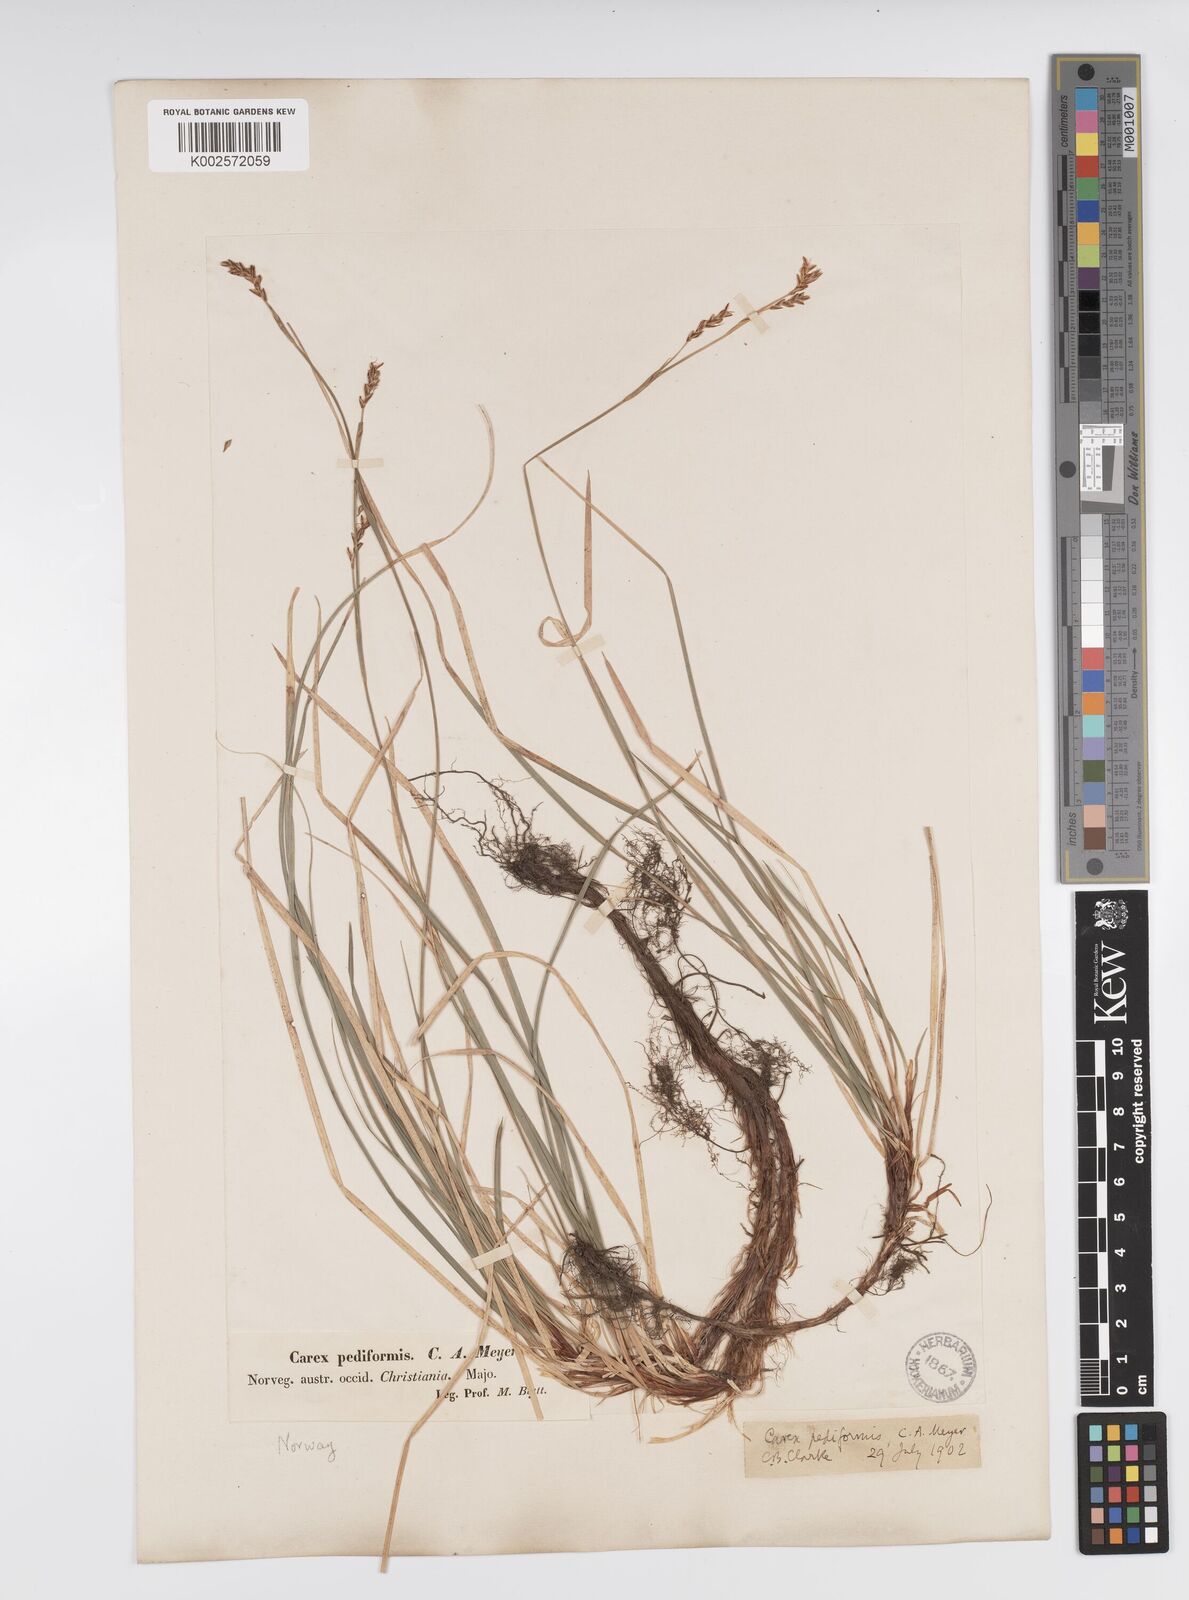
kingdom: Plantae
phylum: Tracheophyta
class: Liliopsida
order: Poales
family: Cyperaceae
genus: Carex
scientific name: Carex pediformis
